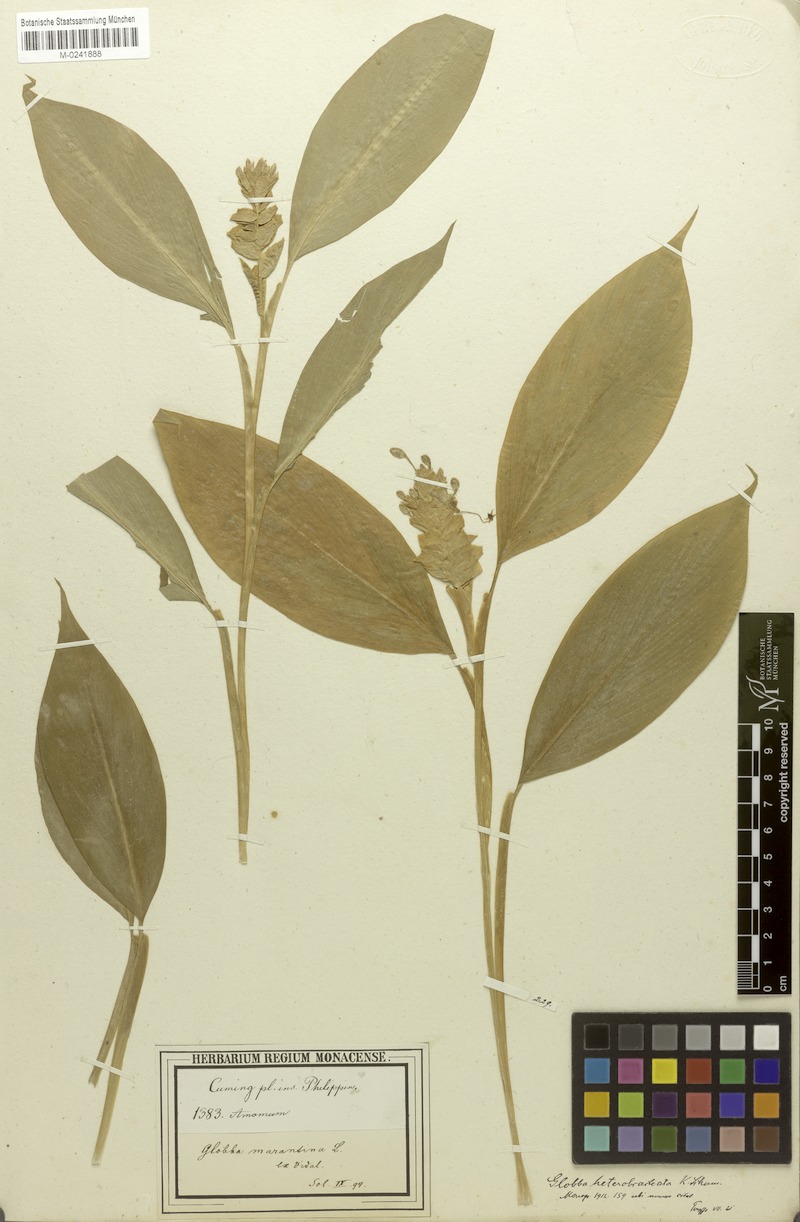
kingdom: Plantae
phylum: Tracheophyta
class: Liliopsida
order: Zingiberales
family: Zingiberaceae
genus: Globba
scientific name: Globba marantina
